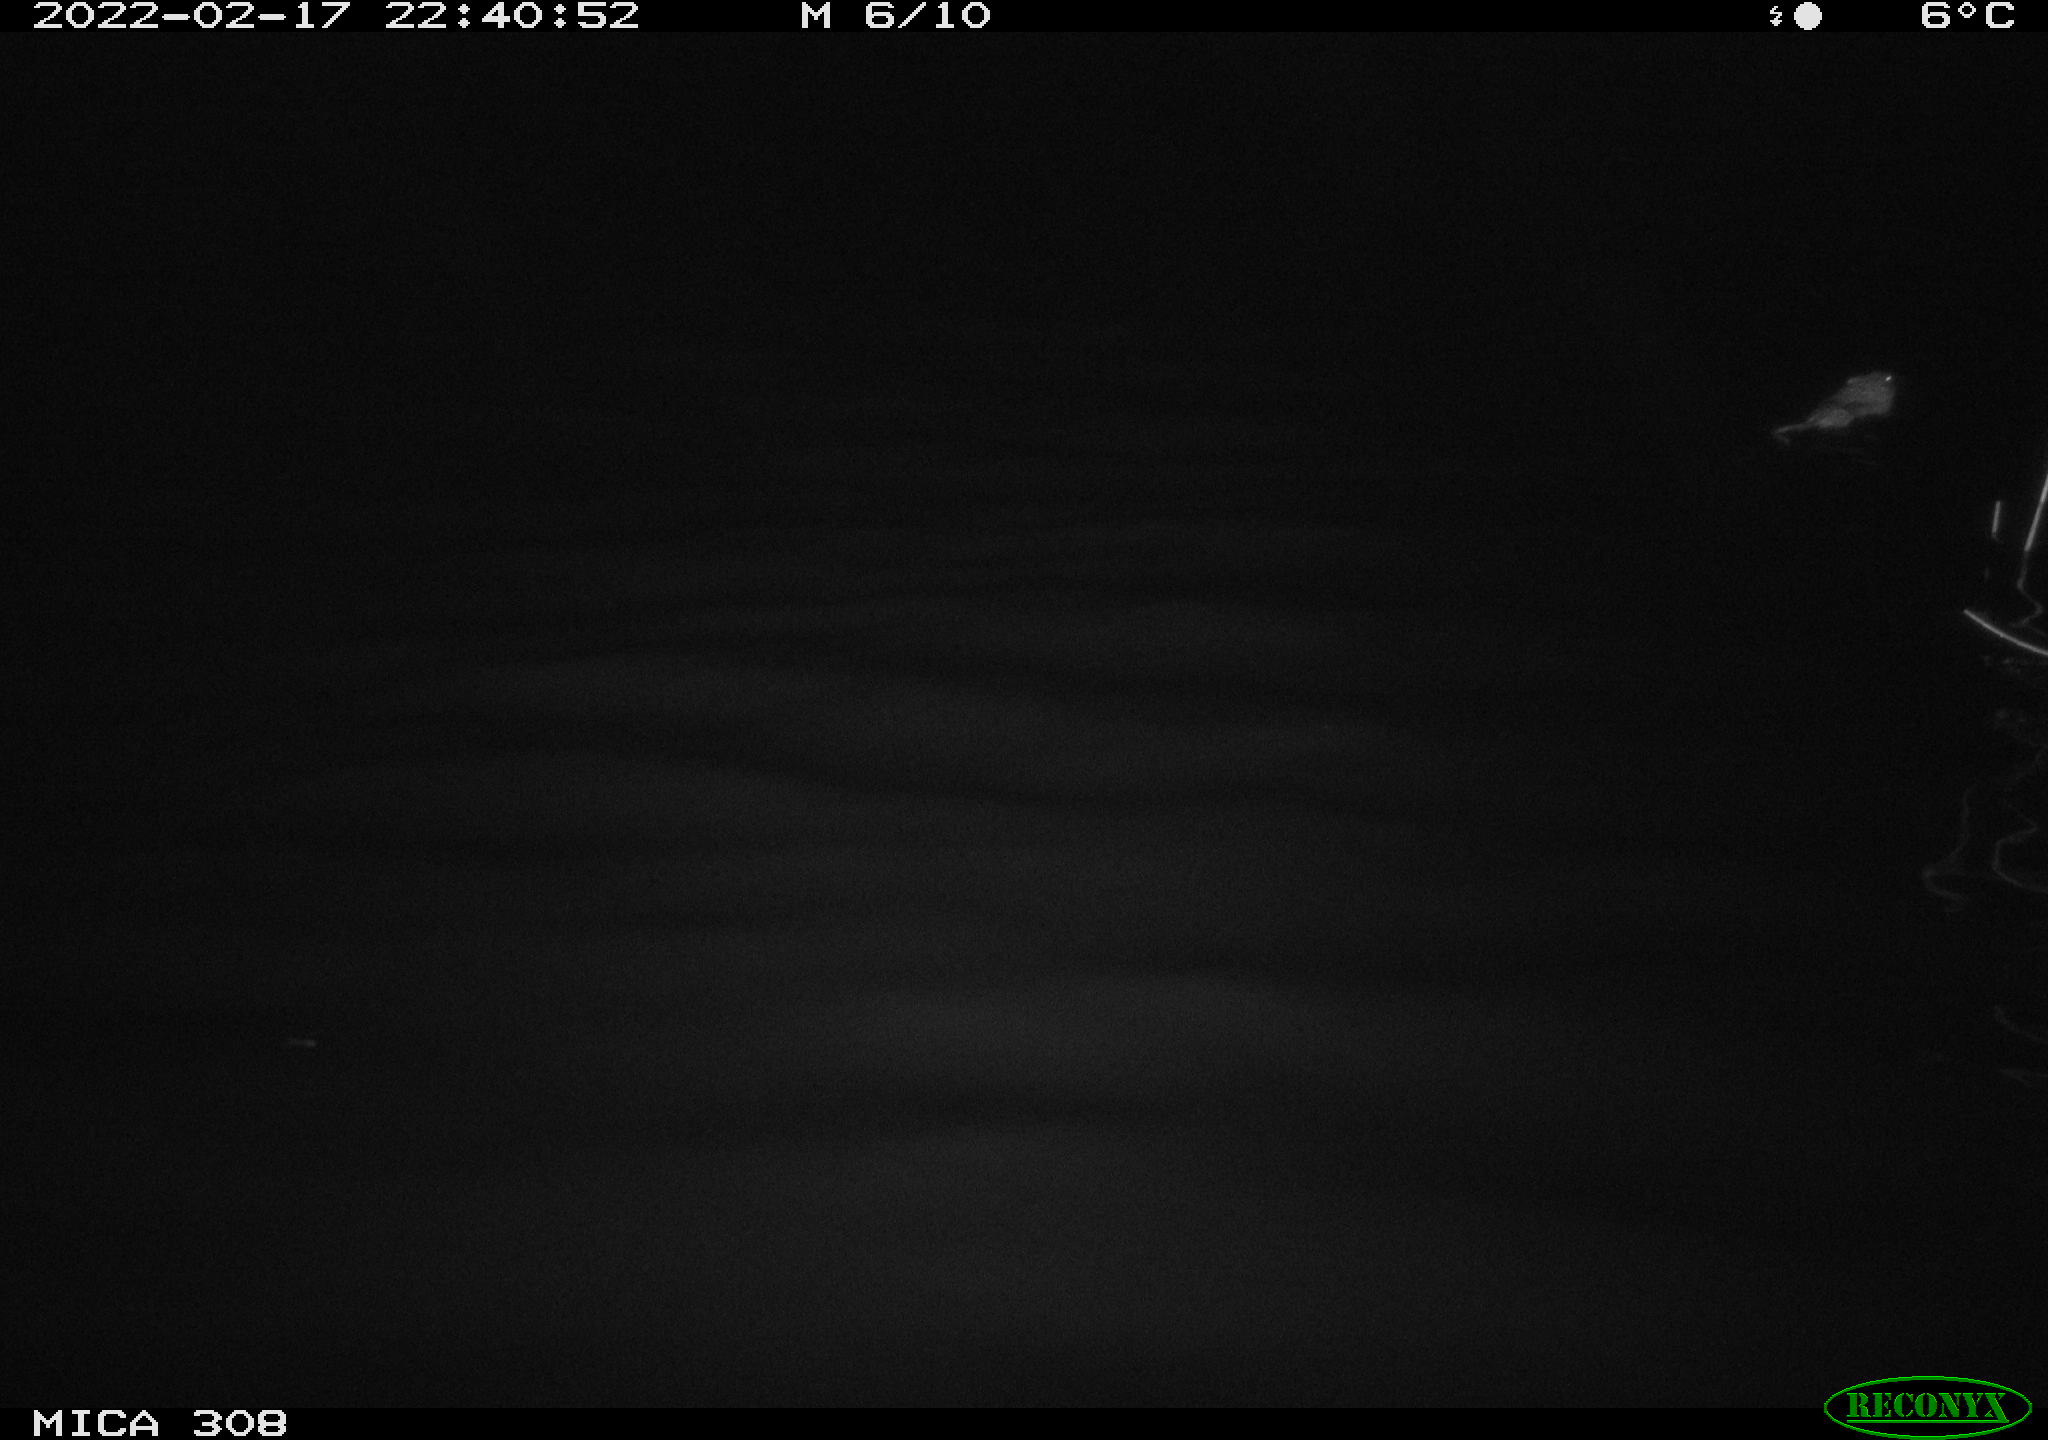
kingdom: Animalia
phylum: Chordata
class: Mammalia
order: Rodentia
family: Cricetidae
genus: Ondatra
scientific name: Ondatra zibethicus
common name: Muskrat
